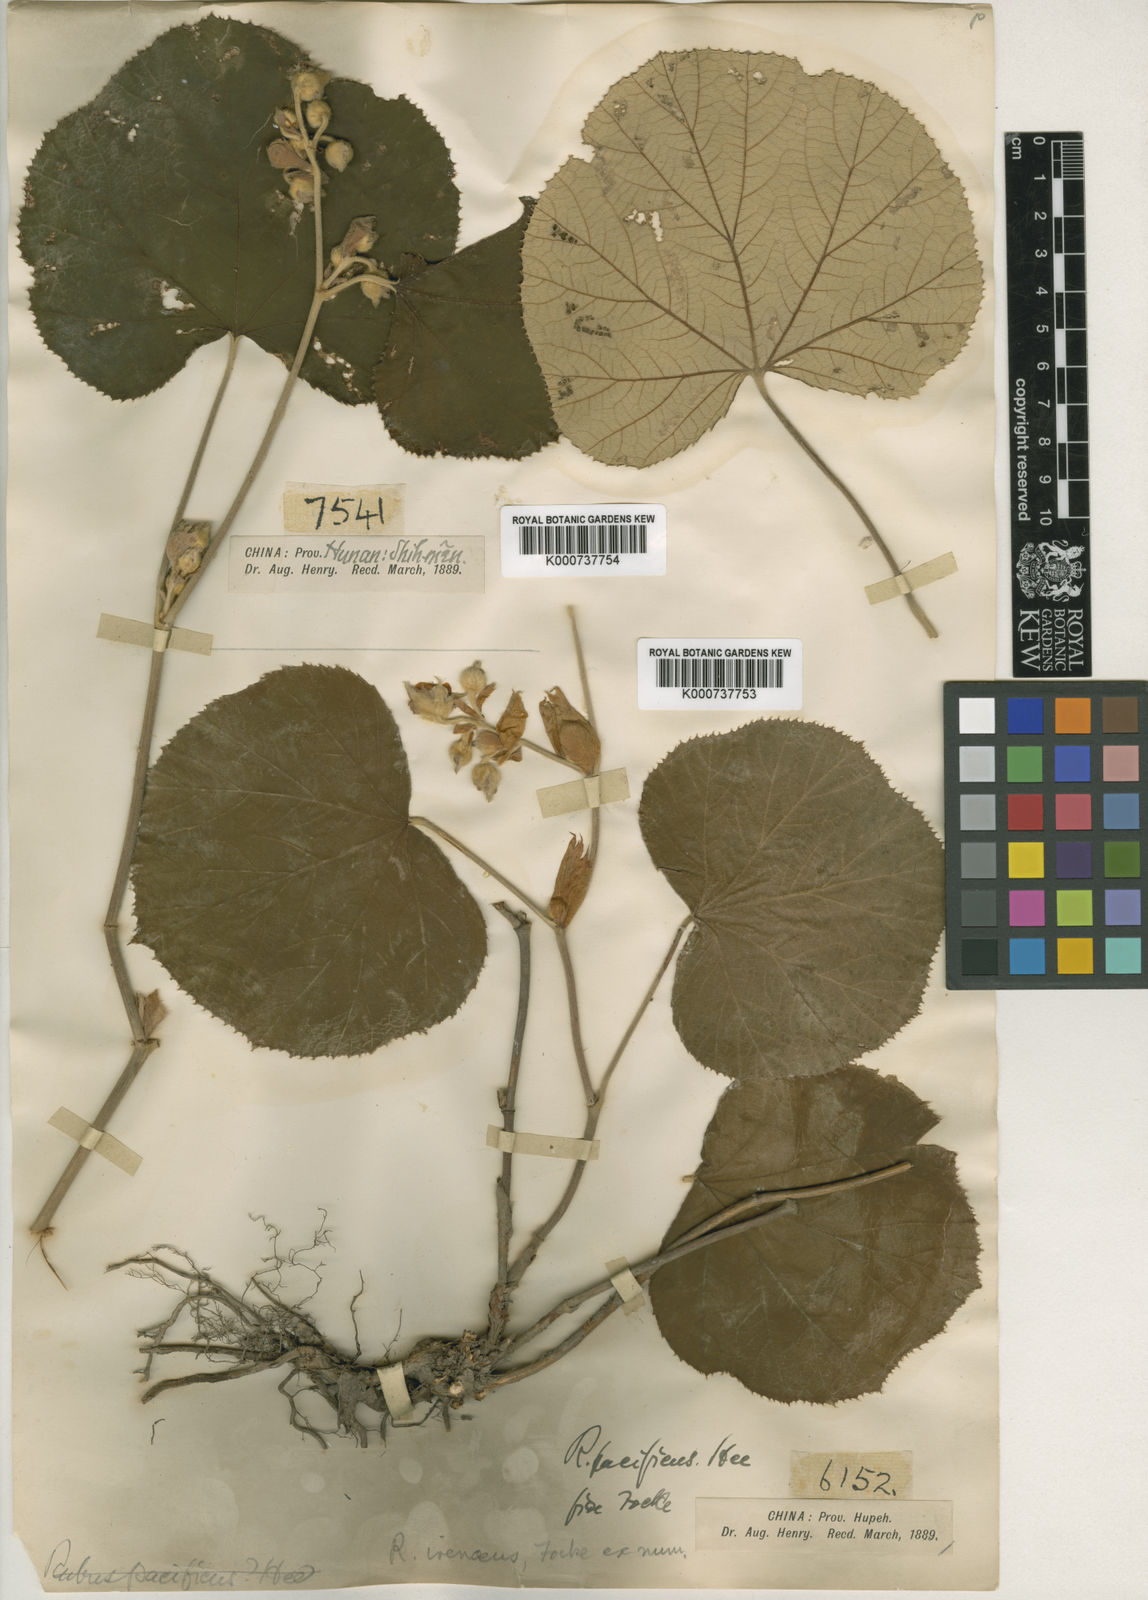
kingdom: Plantae
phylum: Tracheophyta
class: Magnoliopsida
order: Rosales
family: Rosaceae
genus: Rubus
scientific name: Rubus irenaeus
